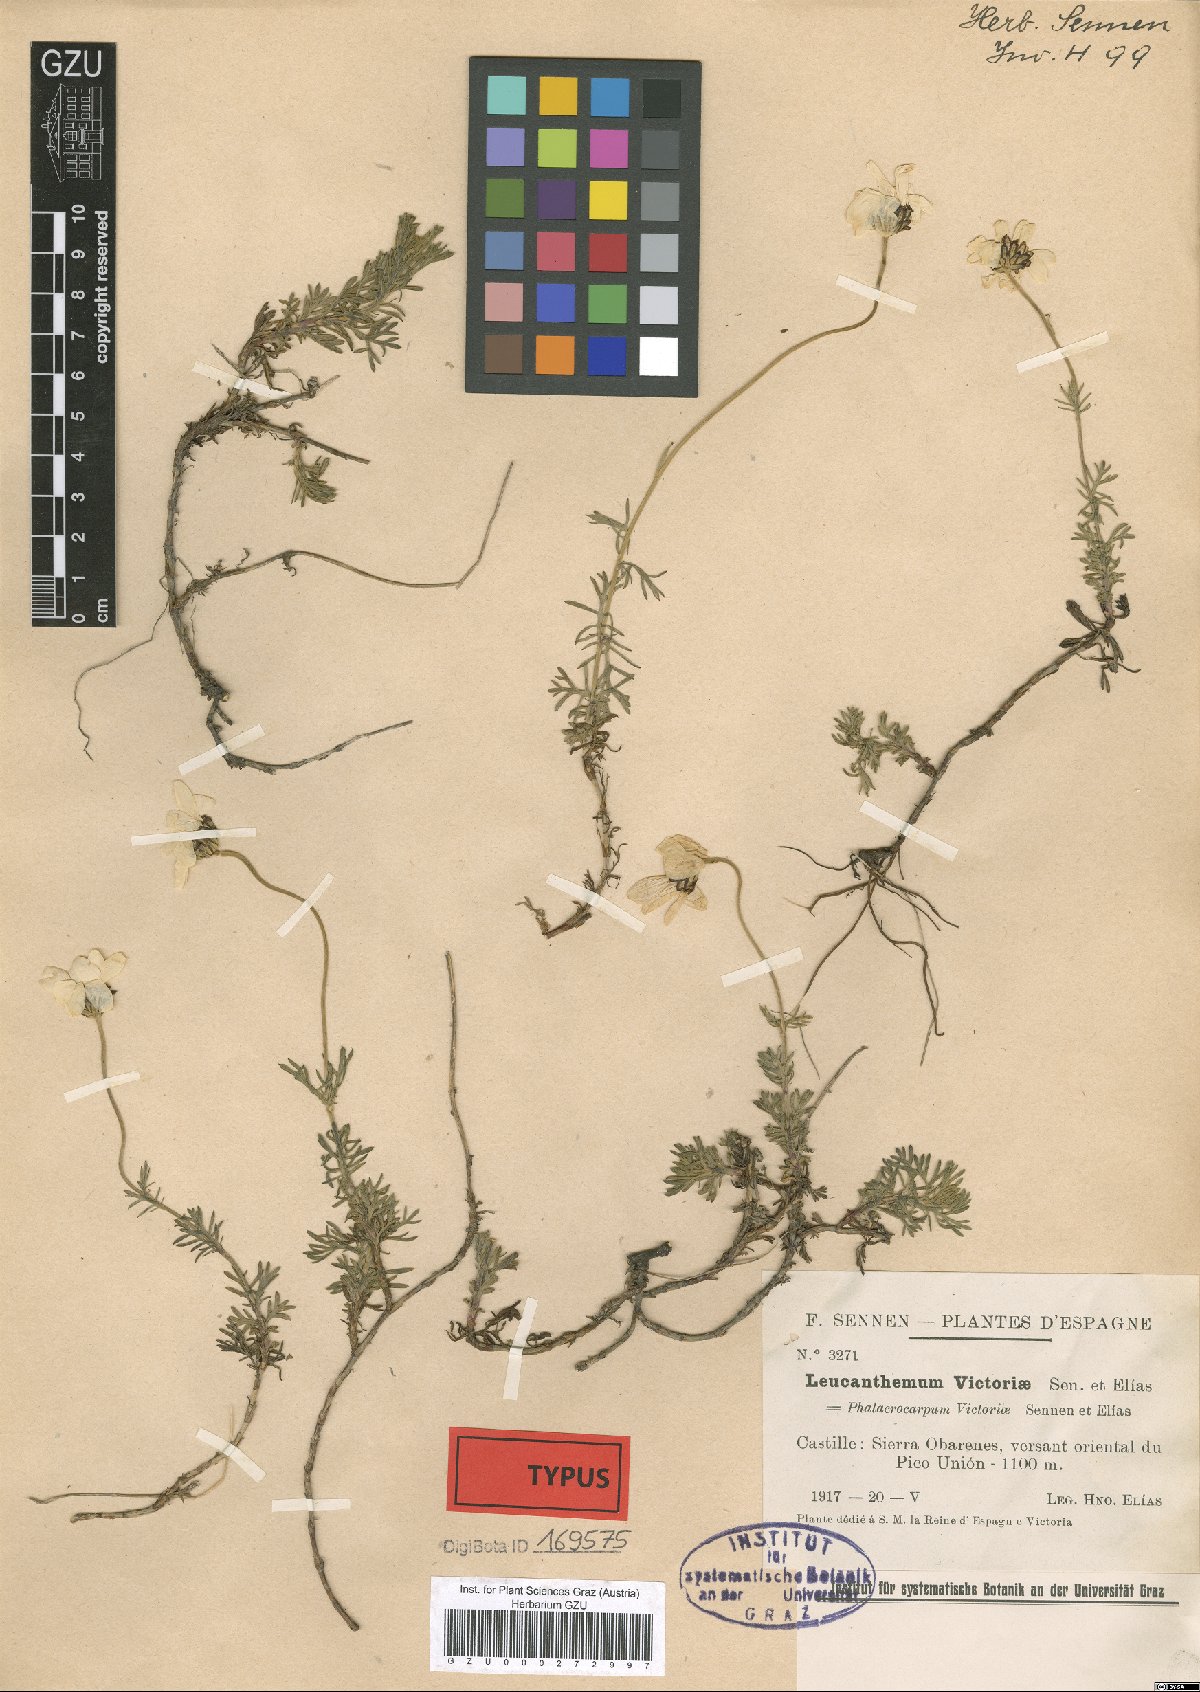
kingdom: Plantae
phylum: Tracheophyta
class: Magnoliopsida
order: Asterales
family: Asteraceae
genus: Phalacrocarpum
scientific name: Phalacrocarpum oppositifolium
